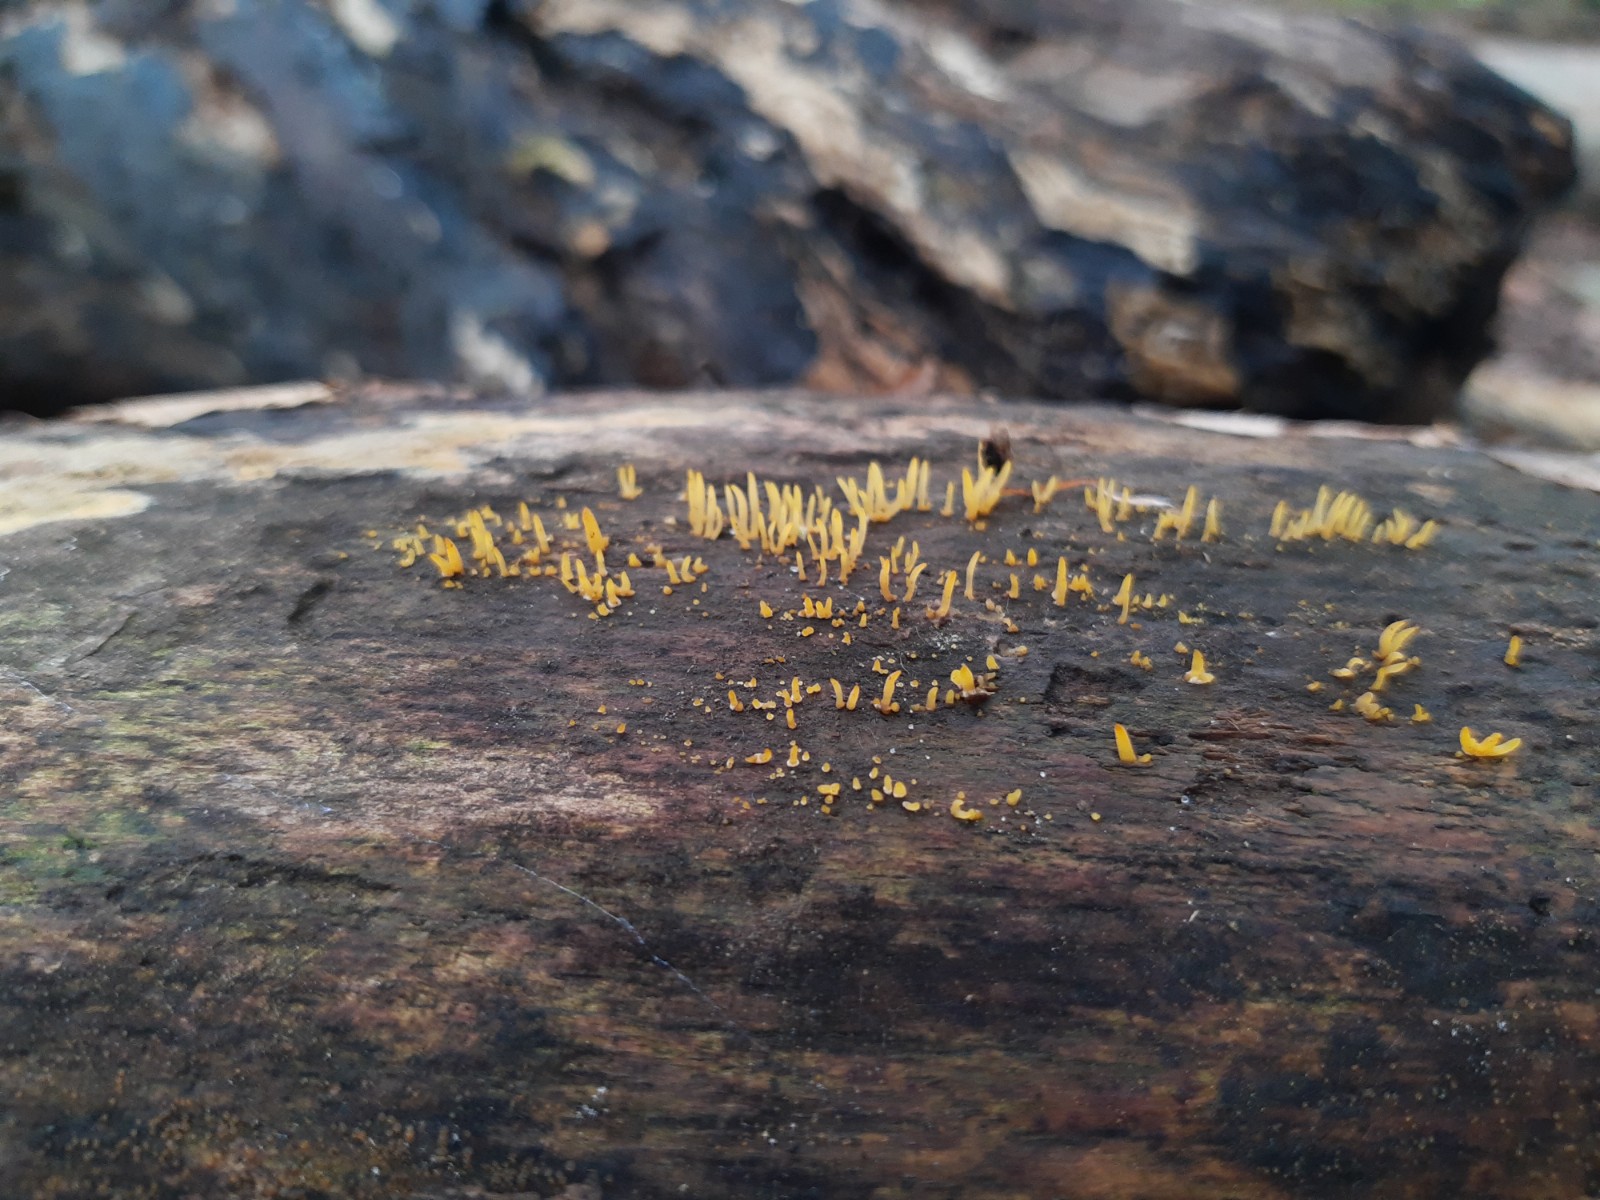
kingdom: Fungi
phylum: Basidiomycota
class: Dacrymycetes
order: Dacrymycetales
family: Dacrymycetaceae
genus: Calocera
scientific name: Calocera cornea
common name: liden guldgaffel
